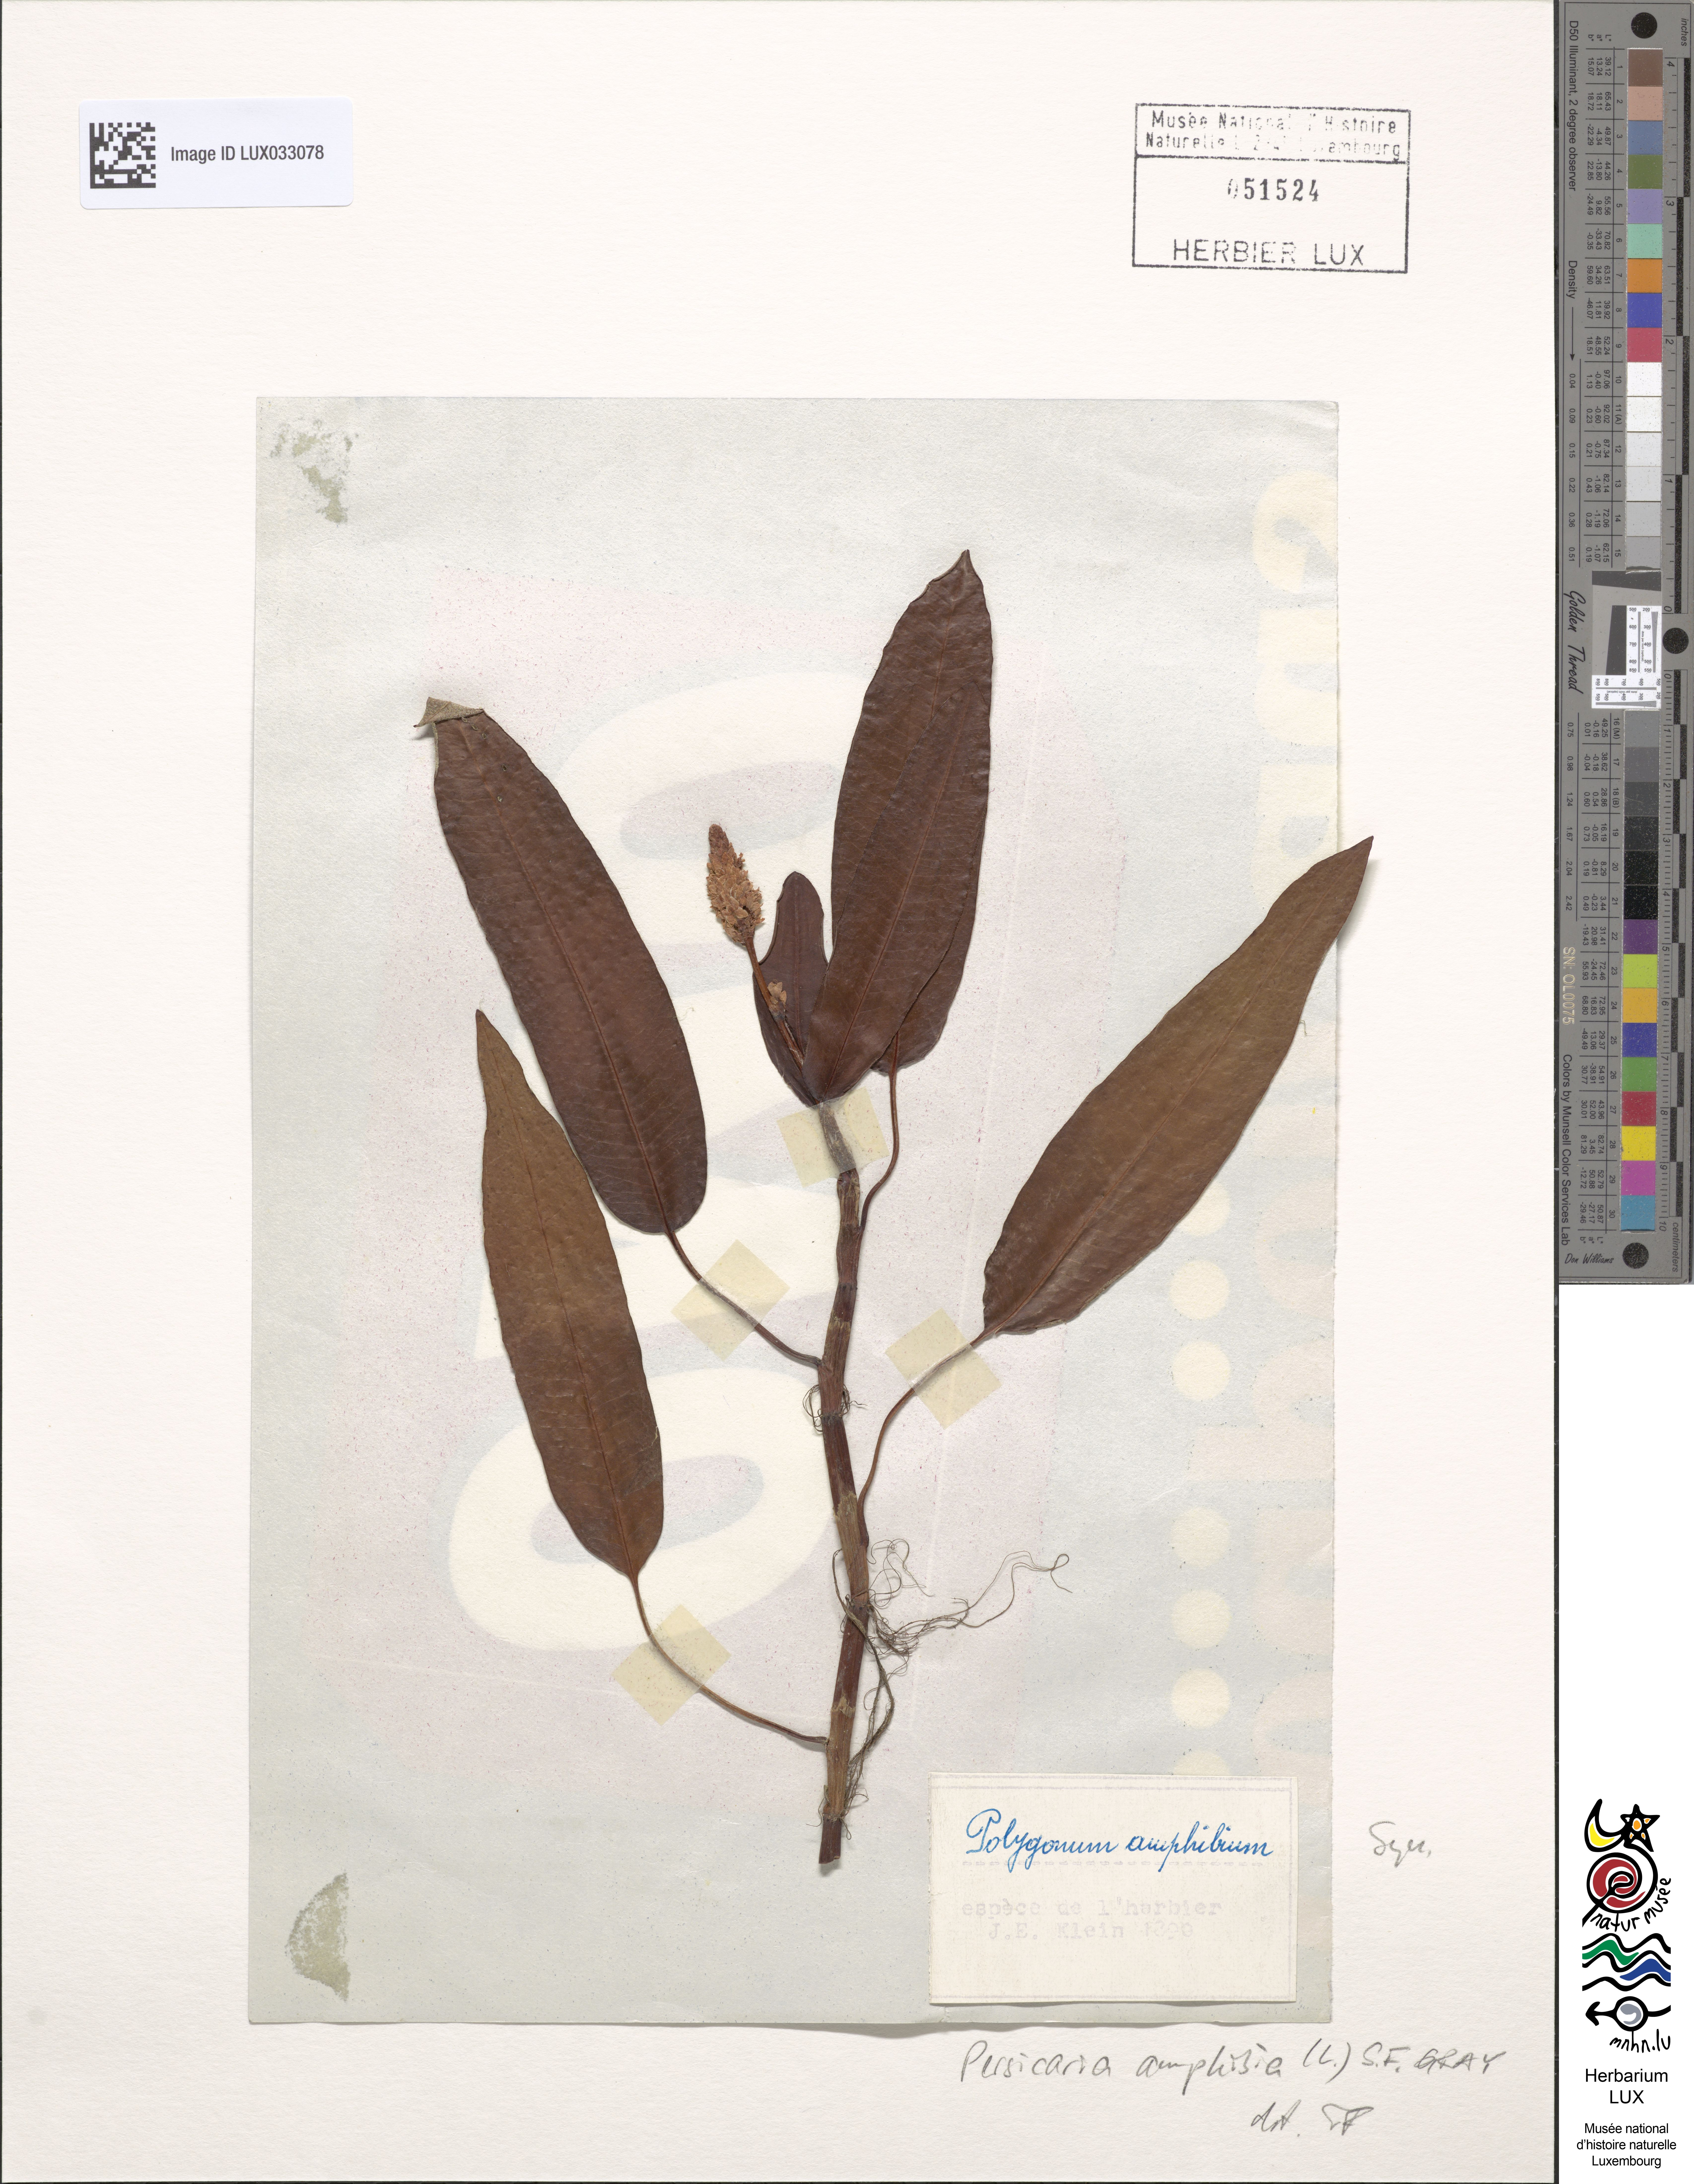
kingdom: Plantae
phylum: Tracheophyta
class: Magnoliopsida
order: Caryophyllales
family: Polygonaceae
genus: Persicaria
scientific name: Persicaria amphibia
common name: Amphibious bistort
